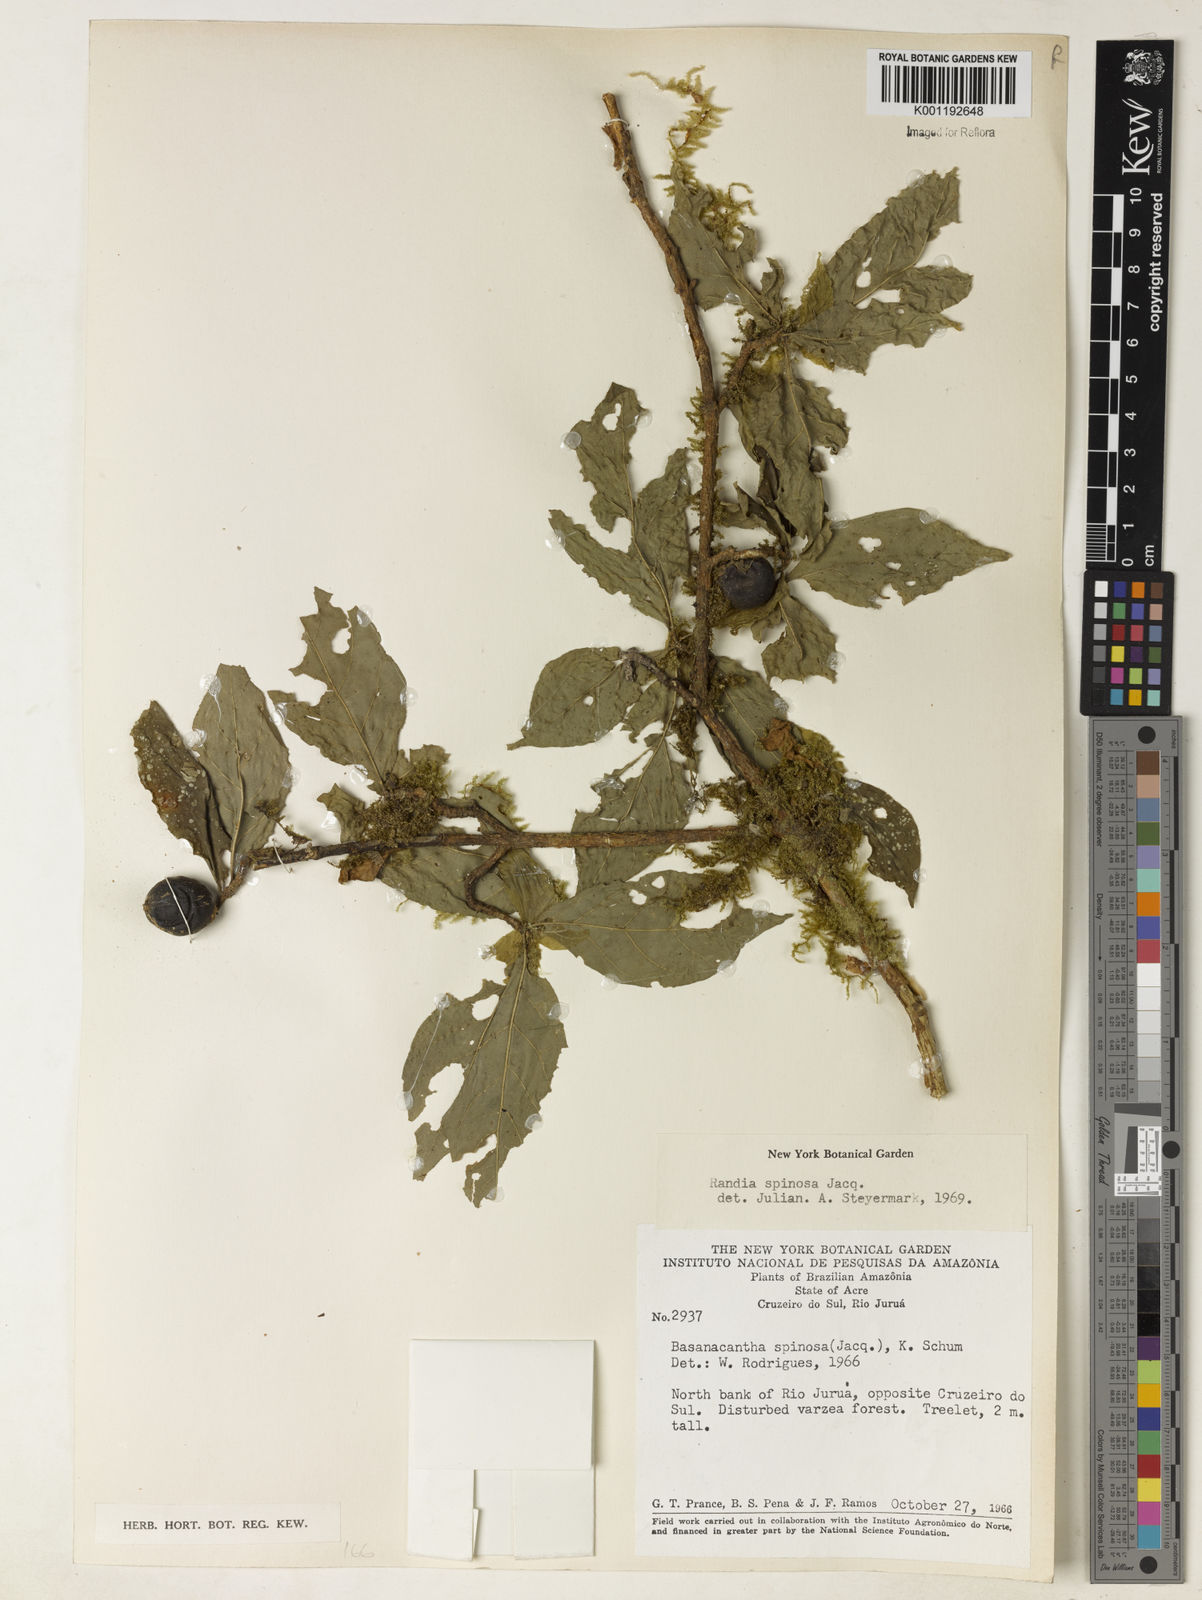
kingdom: Plantae
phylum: Tracheophyta
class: Magnoliopsida
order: Gentianales
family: Rubiaceae
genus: Randia
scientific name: Randia armata
